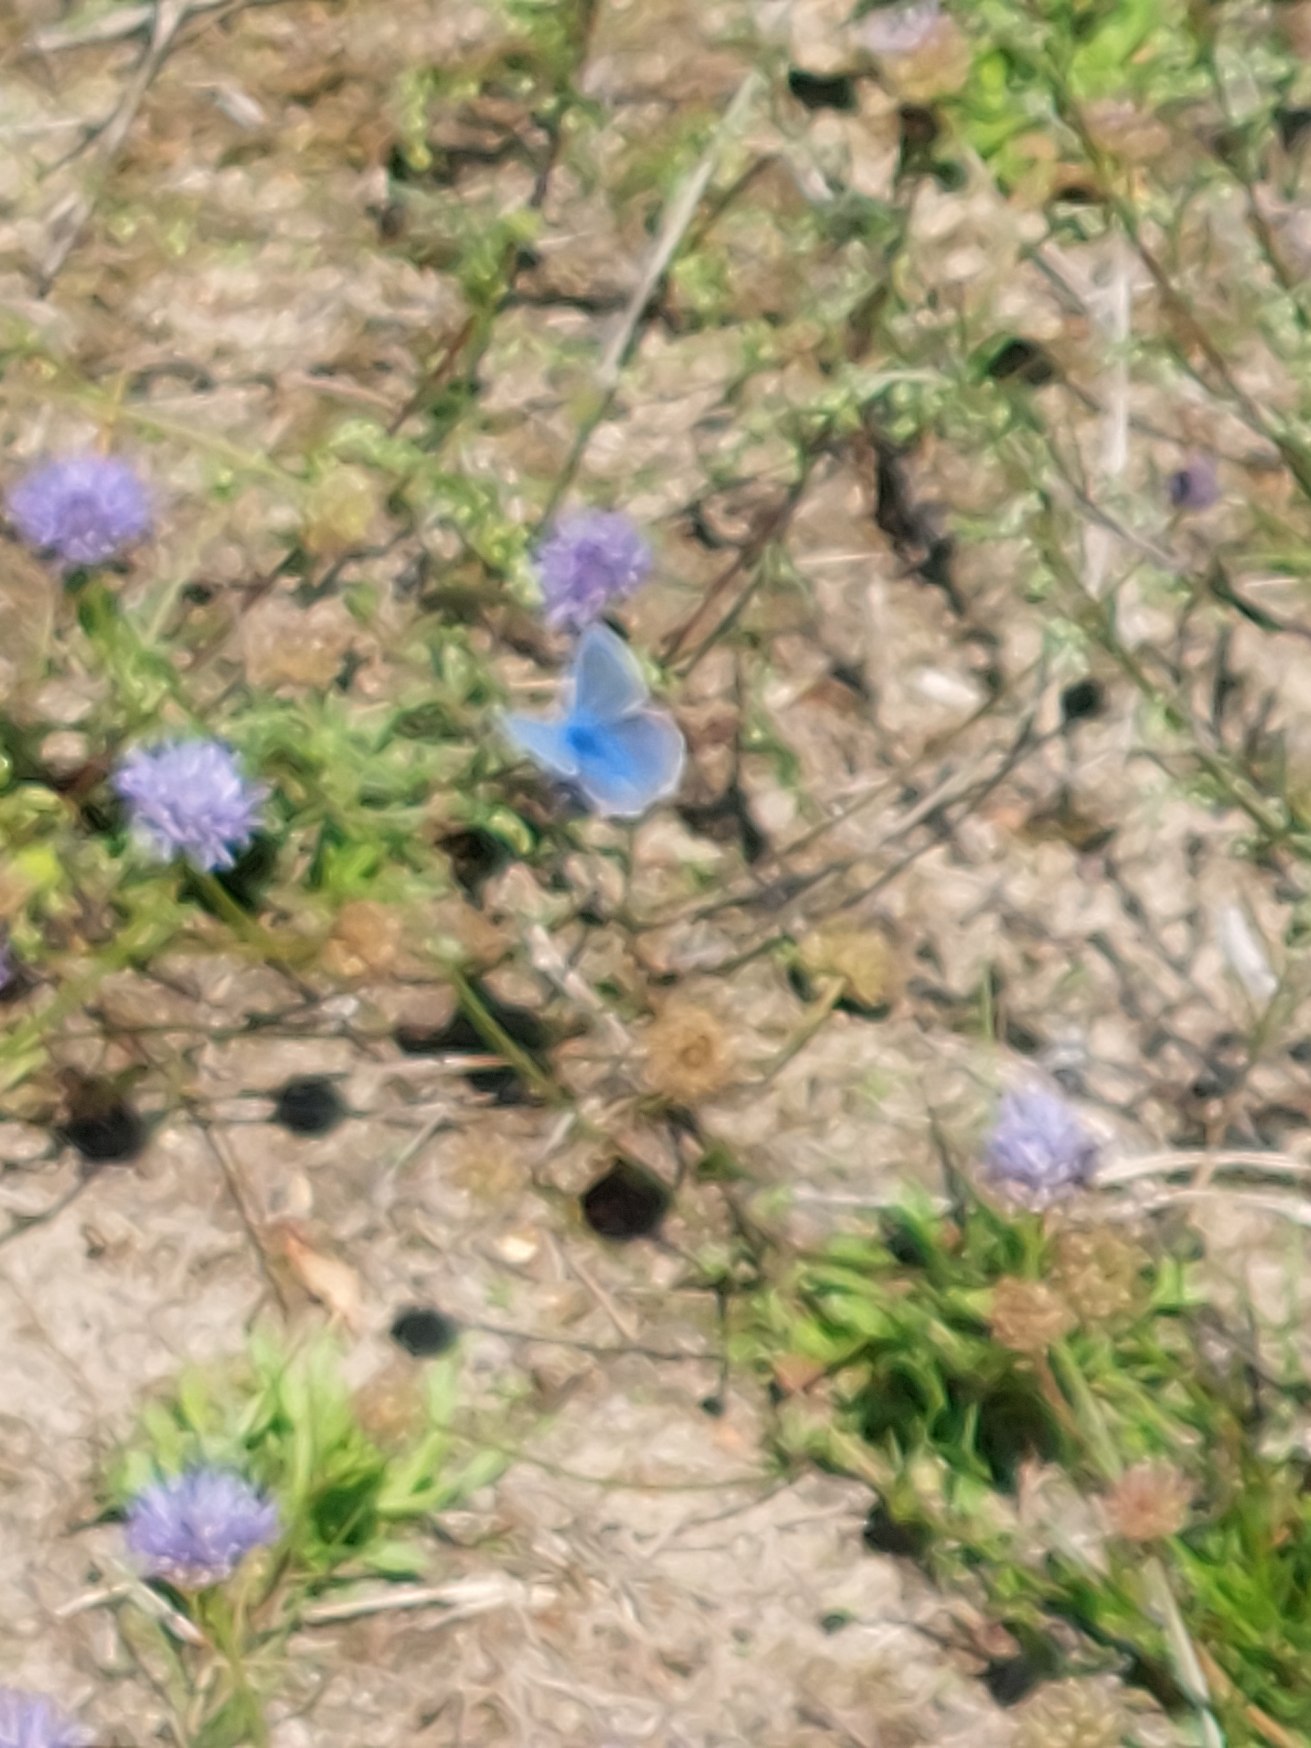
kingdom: Animalia
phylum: Arthropoda
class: Insecta
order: Lepidoptera
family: Lycaenidae
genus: Polyommatus
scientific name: Polyommatus icarus
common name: Almindelig blåfugl
